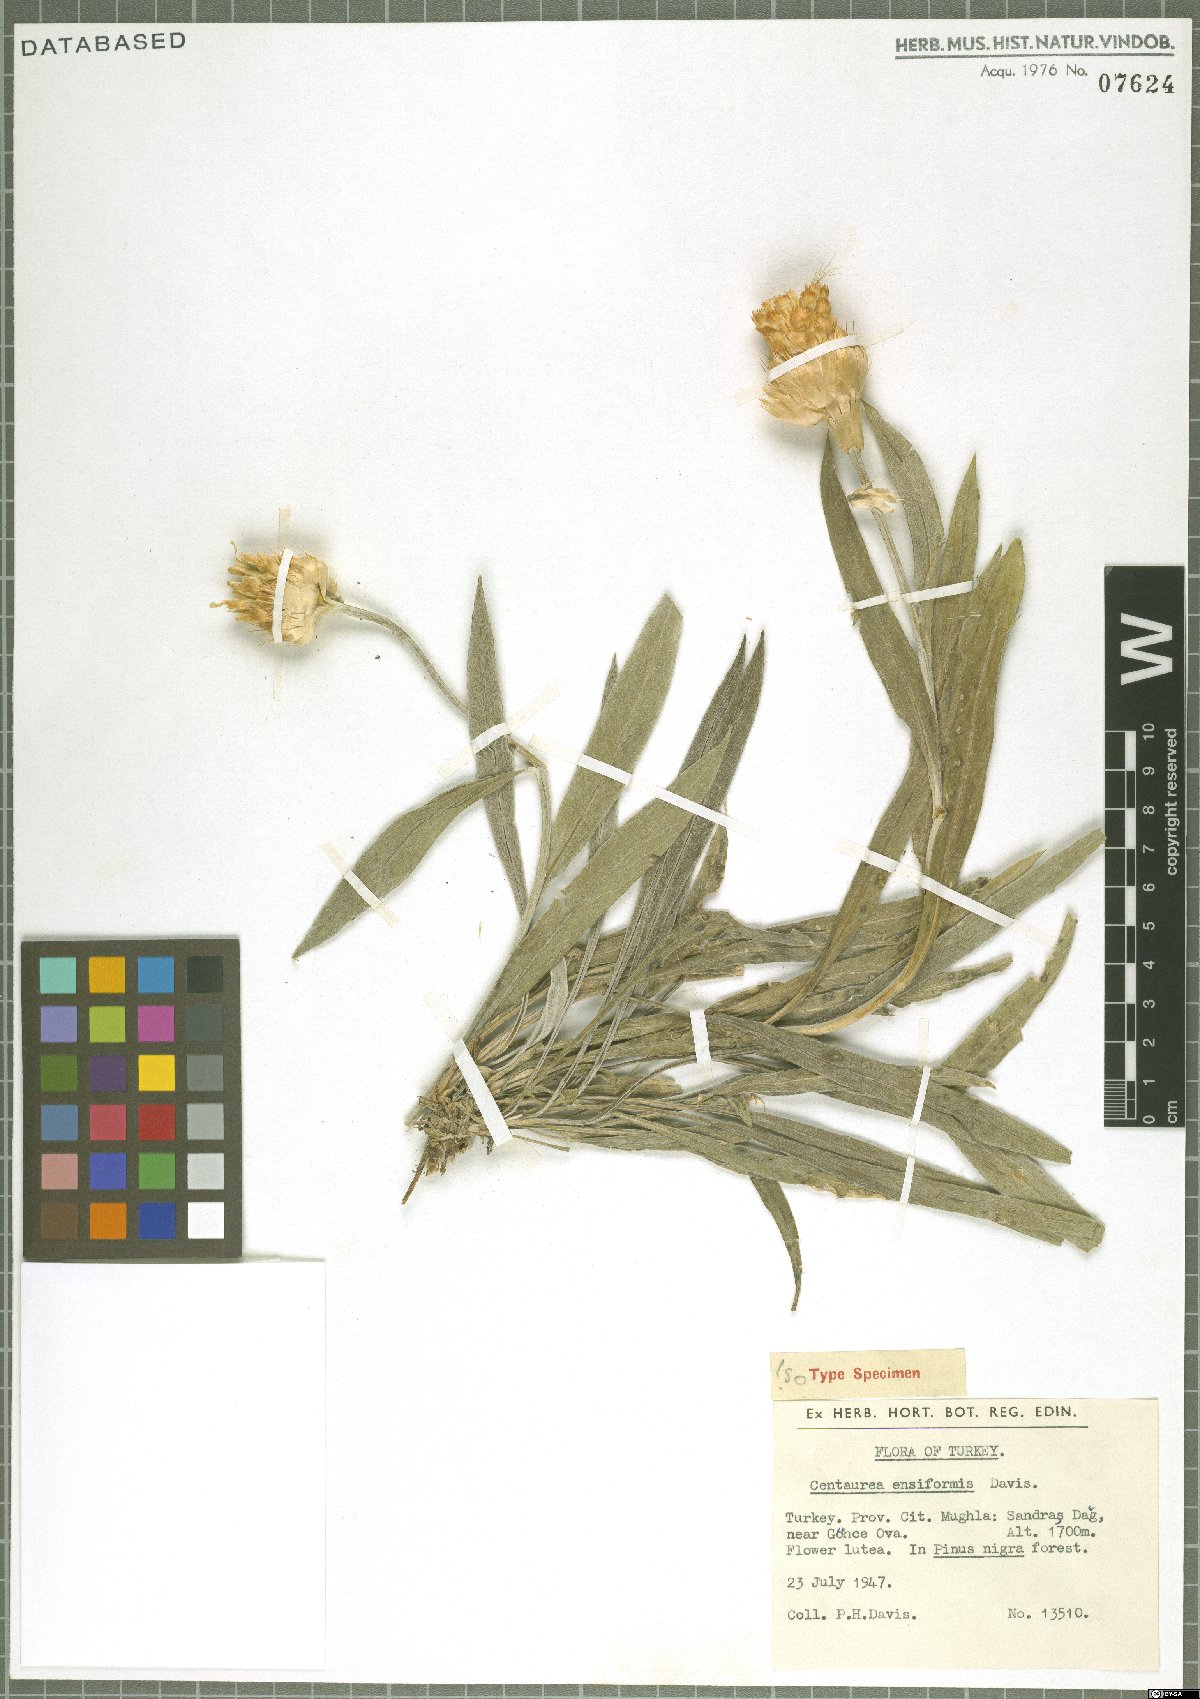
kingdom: Plantae
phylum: Tracheophyta
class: Magnoliopsida
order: Asterales
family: Asteraceae
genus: Centaurea
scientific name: Centaurea ensiformis
